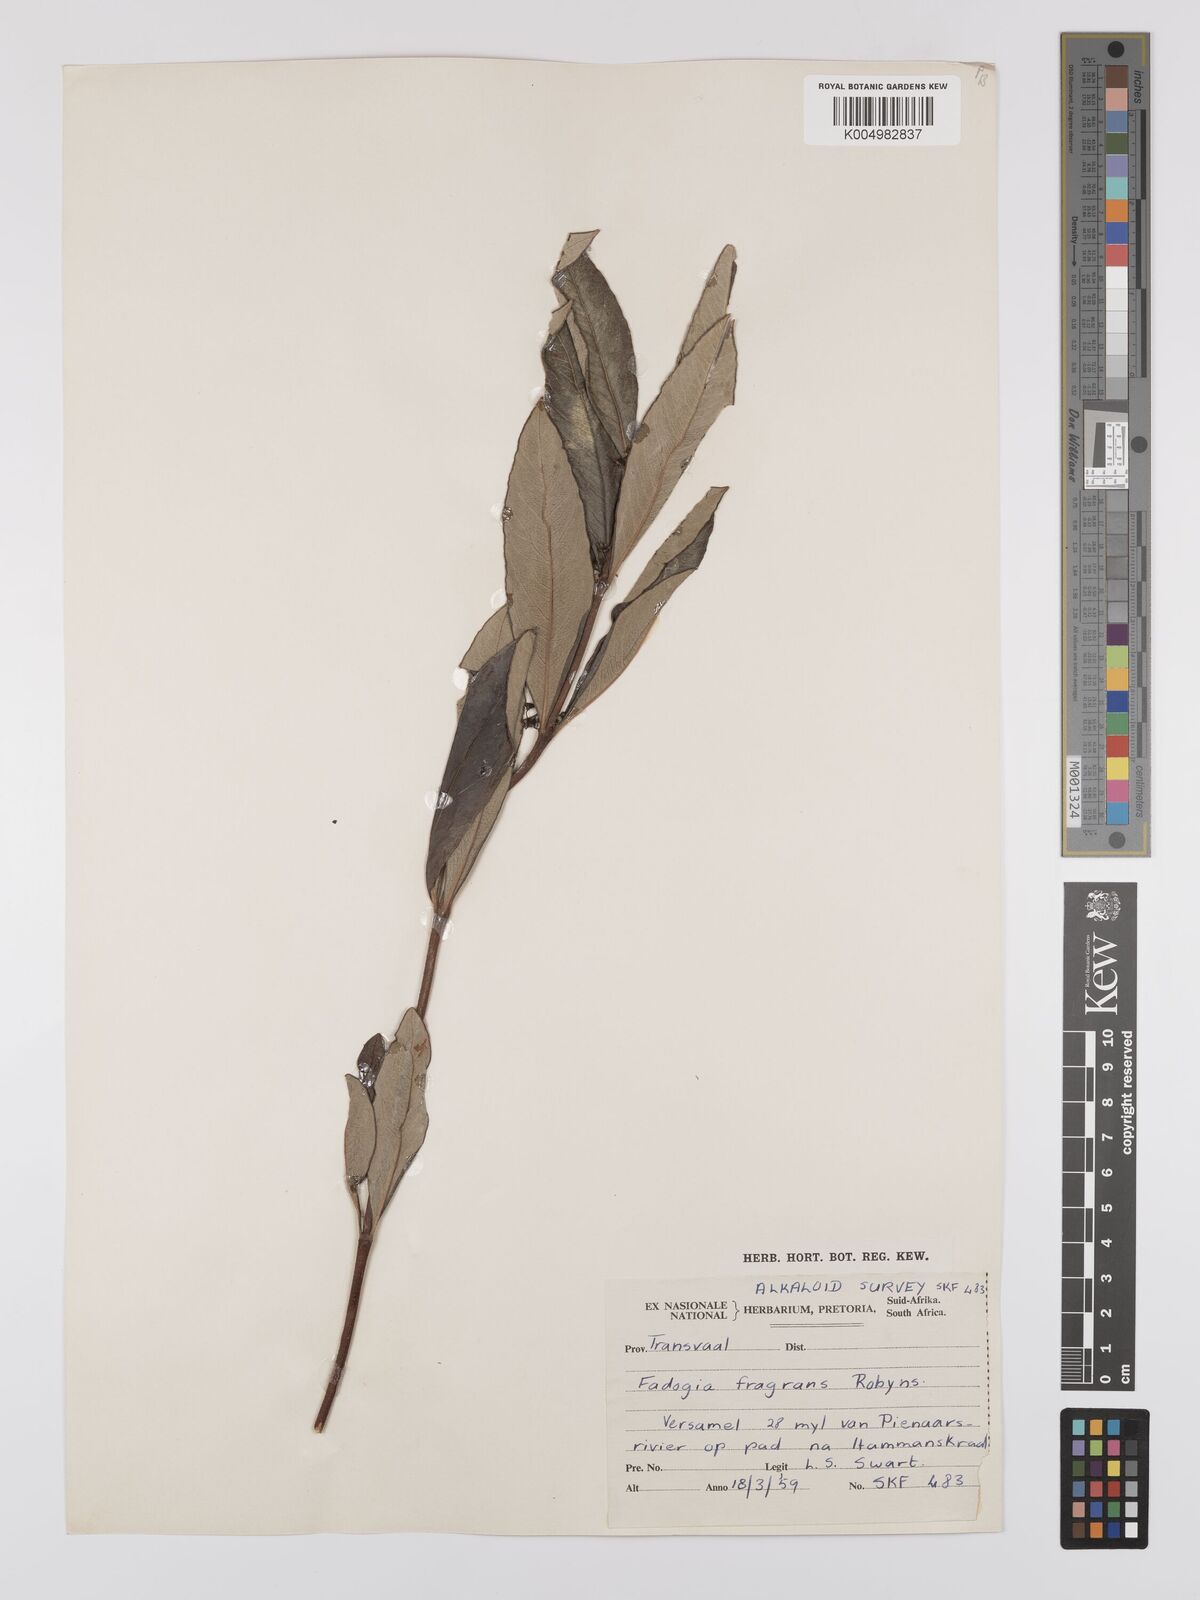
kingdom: Plantae
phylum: Tracheophyta
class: Magnoliopsida
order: Gentianales
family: Rubiaceae
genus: Fadogia
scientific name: Fadogia triphylla
